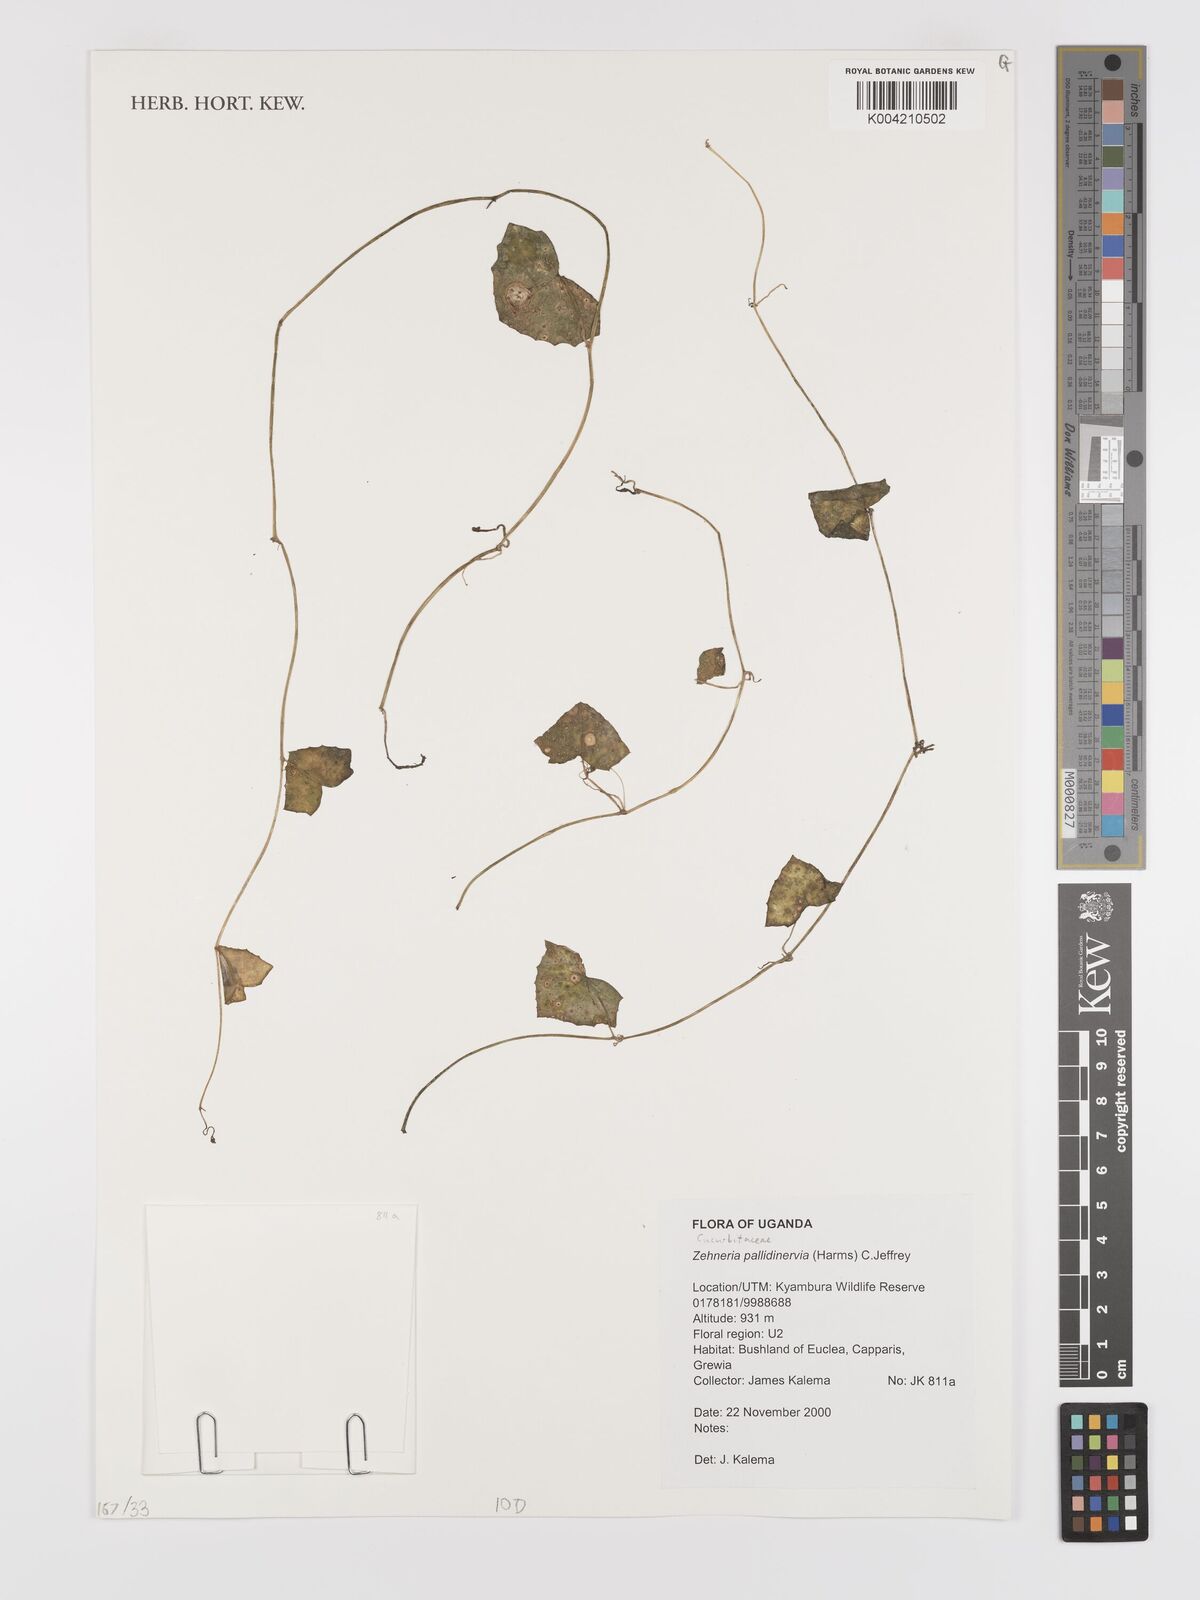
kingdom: Plantae
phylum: Tracheophyta
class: Magnoliopsida
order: Cucurbitales
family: Cucurbitaceae
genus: Zehneria
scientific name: Zehneria pallidinervia
